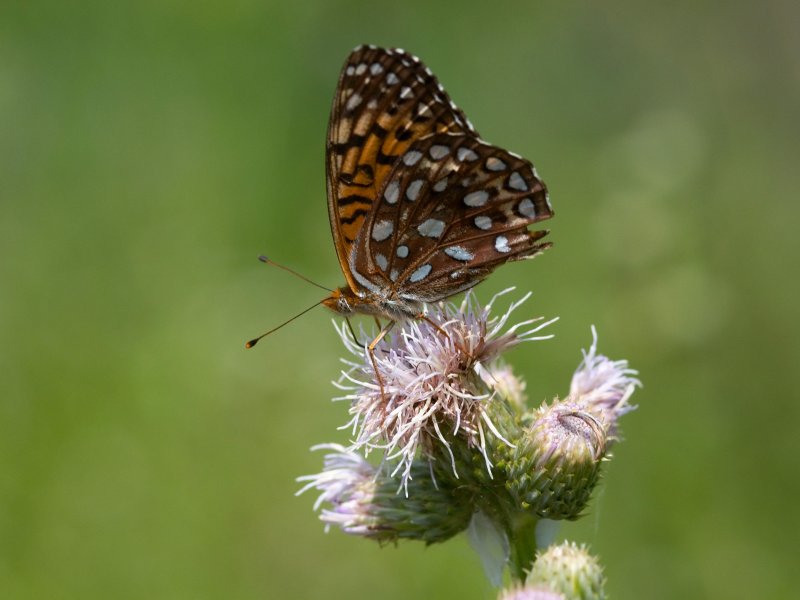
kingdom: Animalia
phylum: Arthropoda
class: Insecta
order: Lepidoptera
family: Nymphalidae
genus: Speyeria
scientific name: Speyeria atlantis
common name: Atlantis Fritillary
